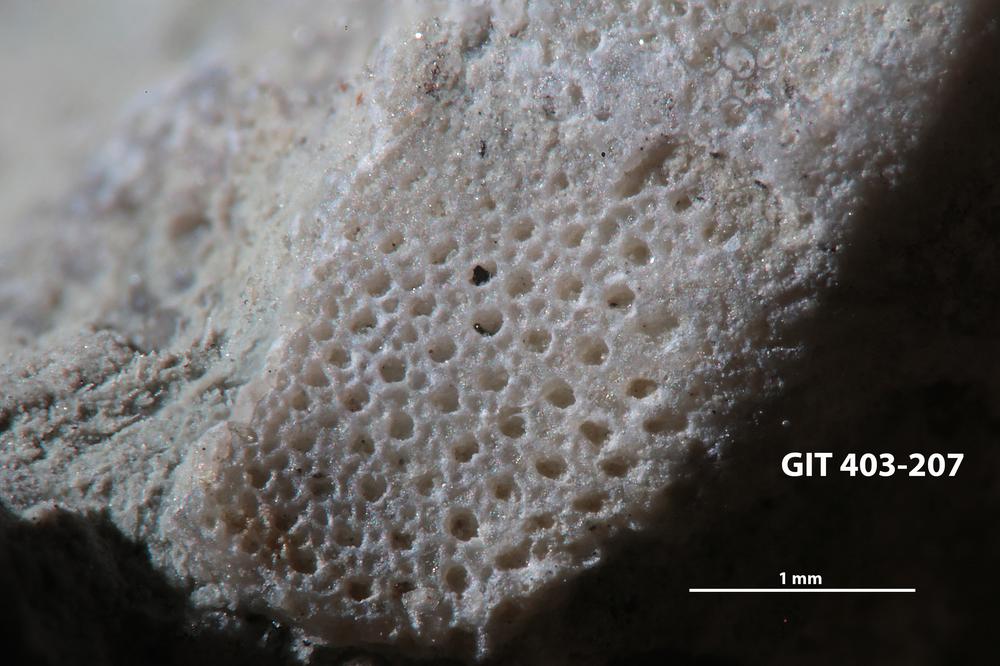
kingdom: Animalia
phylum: Bryozoa
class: Stenolaemata
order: Cystoporida
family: Fistuliporidae
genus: Fistulipora
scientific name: Fistulipora przhidolensis
